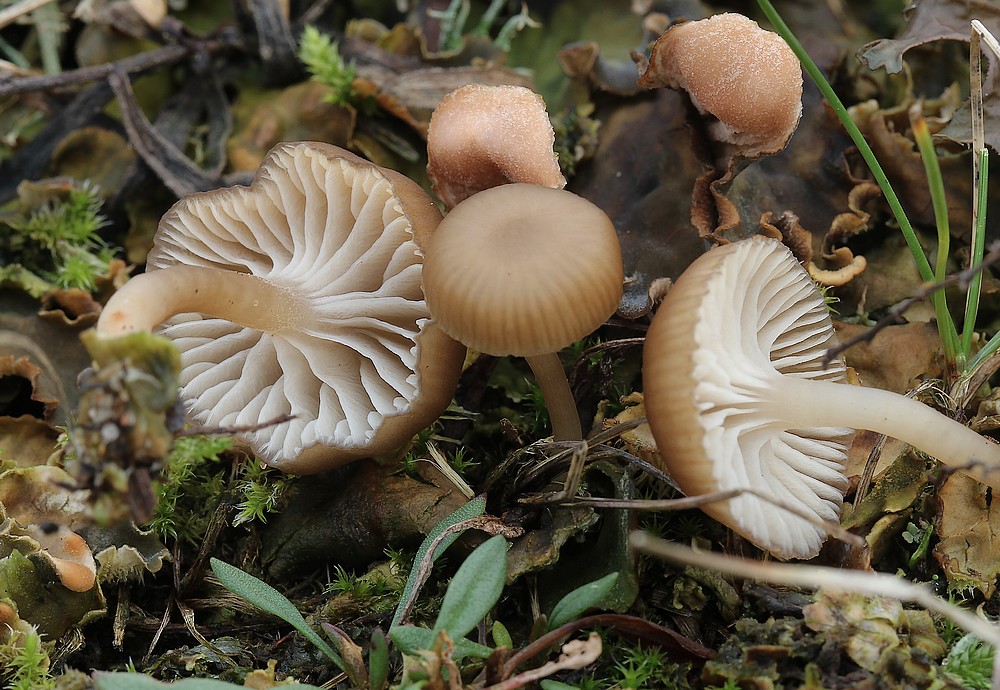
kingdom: Fungi
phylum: Basidiomycota
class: Agaricomycetes
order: Agaricales
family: Tricholomataceae
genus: Gamundia
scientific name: Gamundia xerophila
